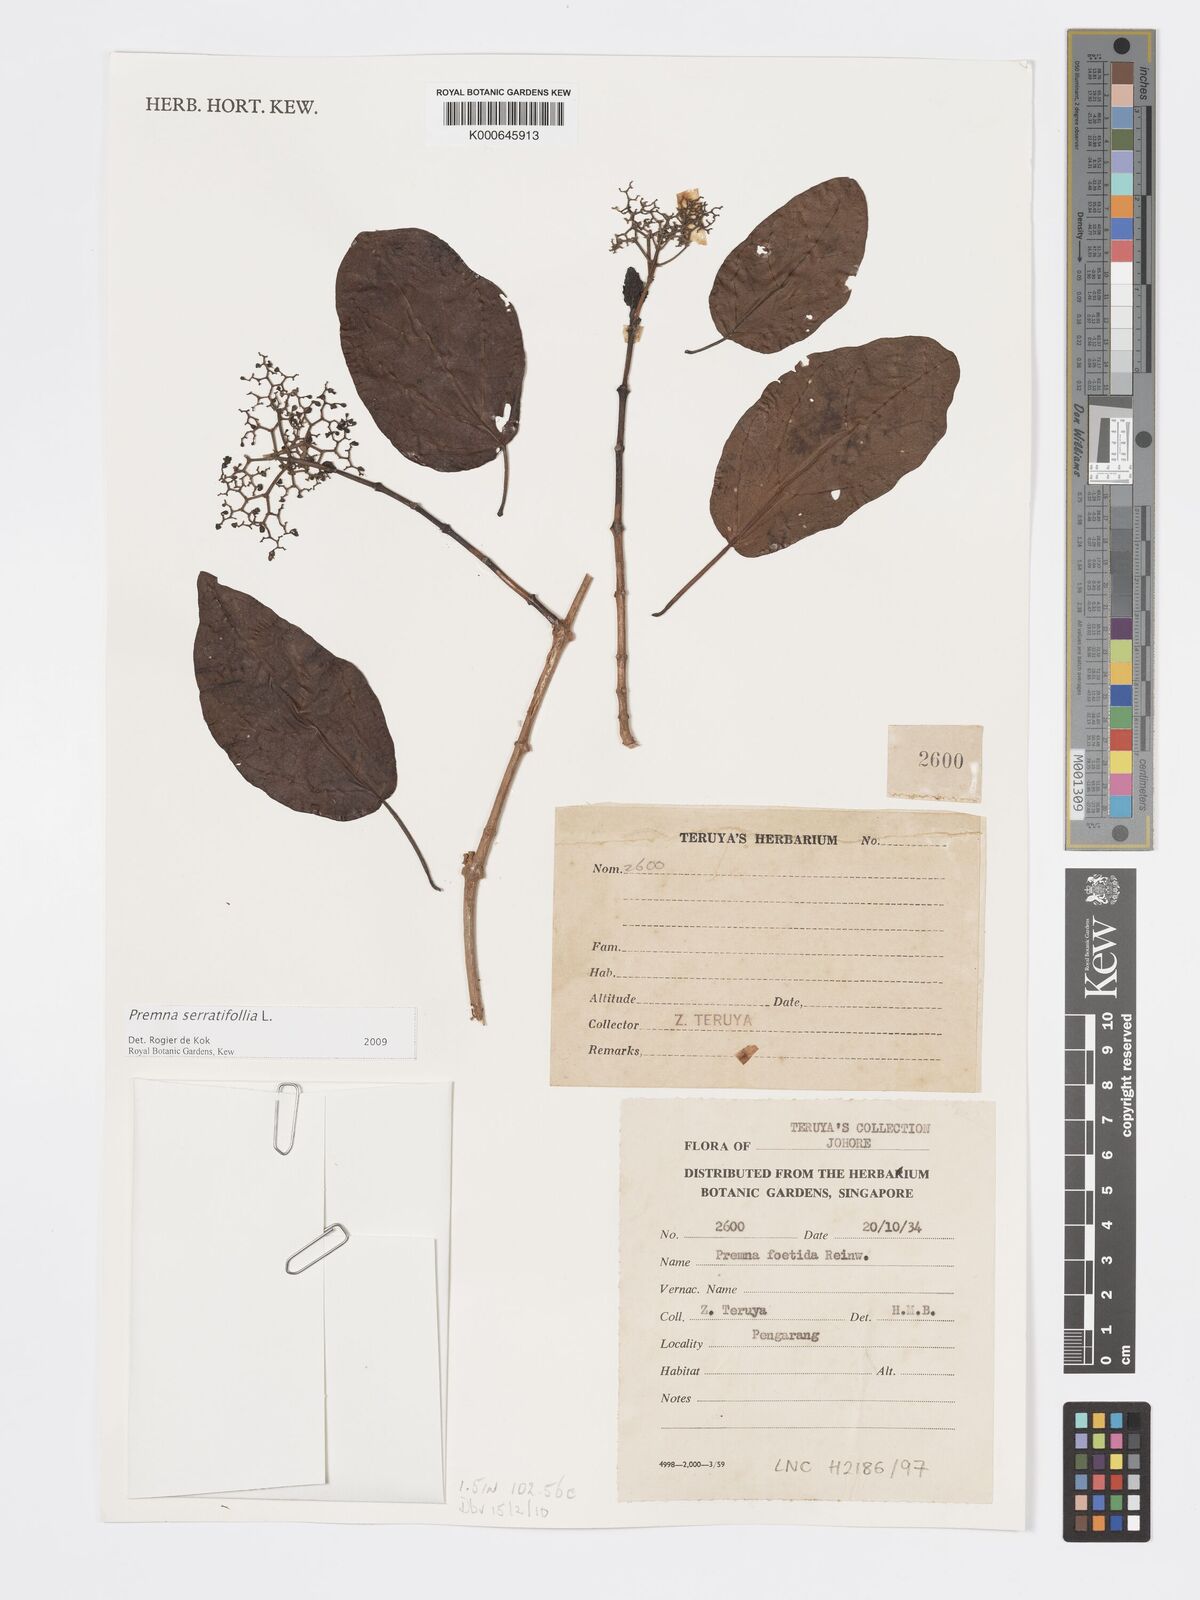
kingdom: Plantae
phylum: Tracheophyta
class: Magnoliopsida
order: Lamiales
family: Lamiaceae
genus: Premna
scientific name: Premna serratifolia
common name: Bastard guelder
